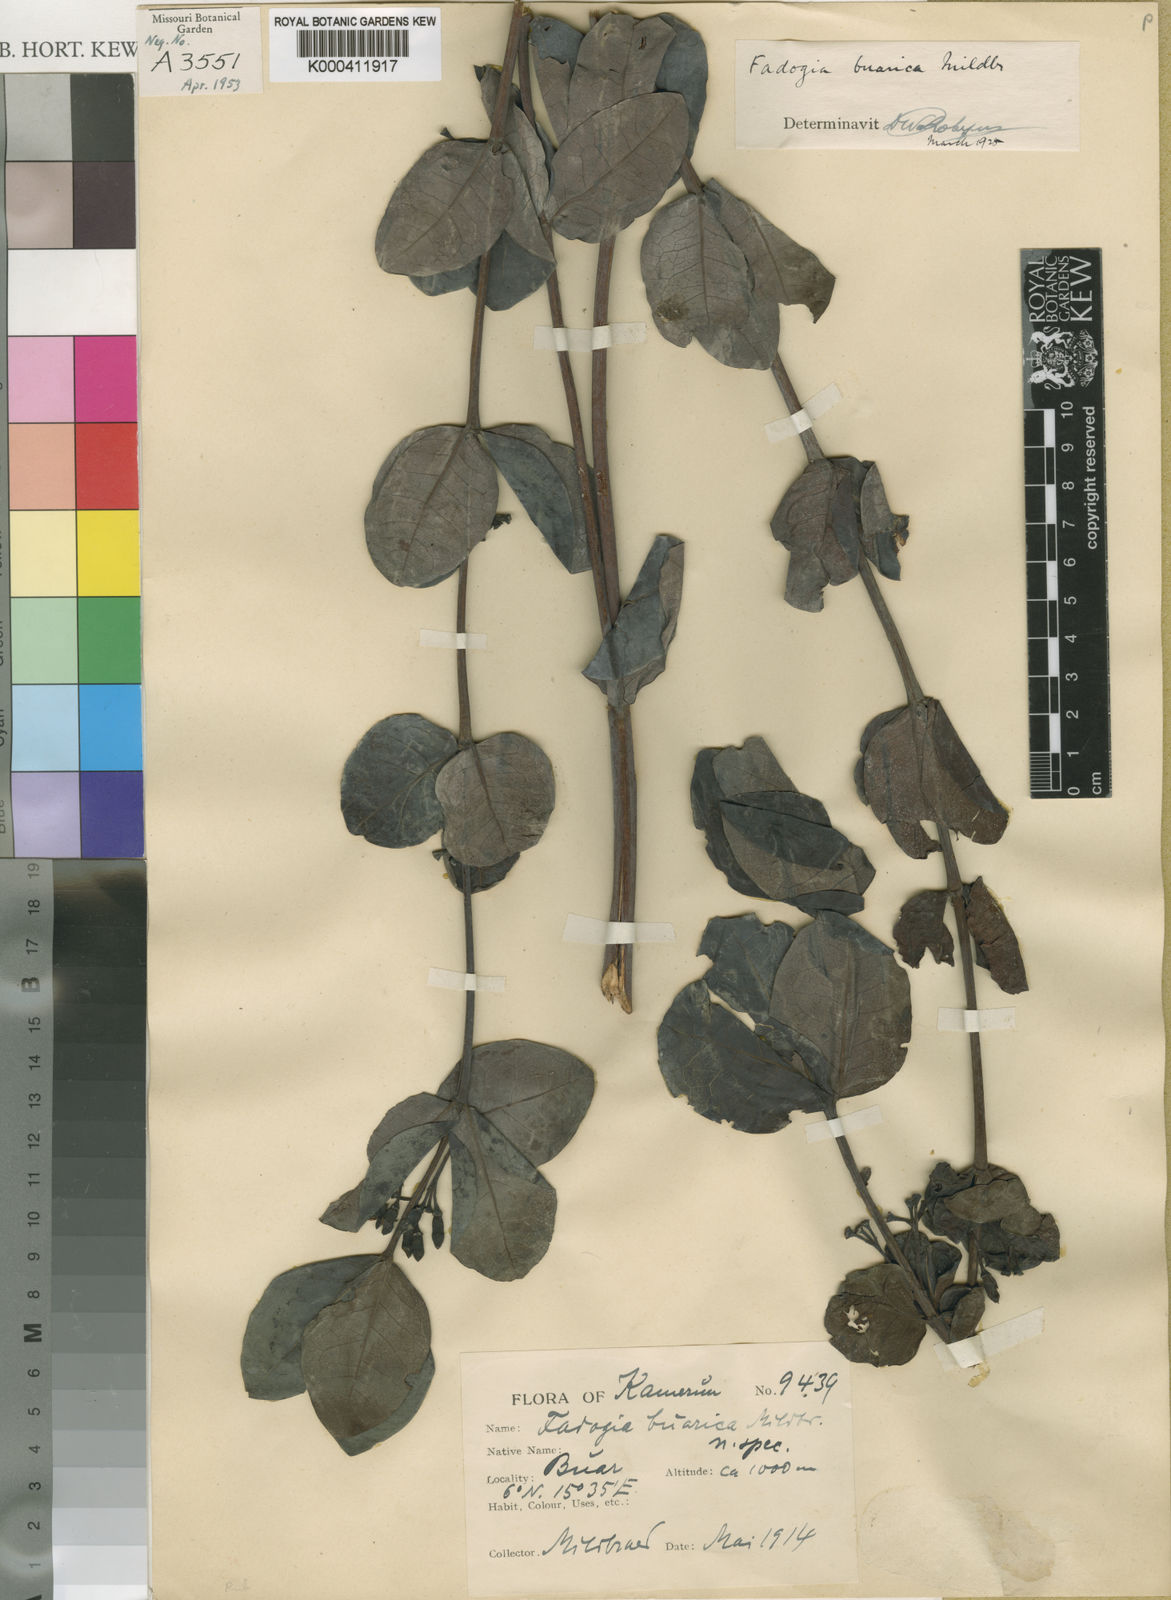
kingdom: Plantae
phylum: Tracheophyta
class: Magnoliopsida
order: Gentianales
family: Rubiaceae
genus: Fadogia
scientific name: Fadogia triphylla
